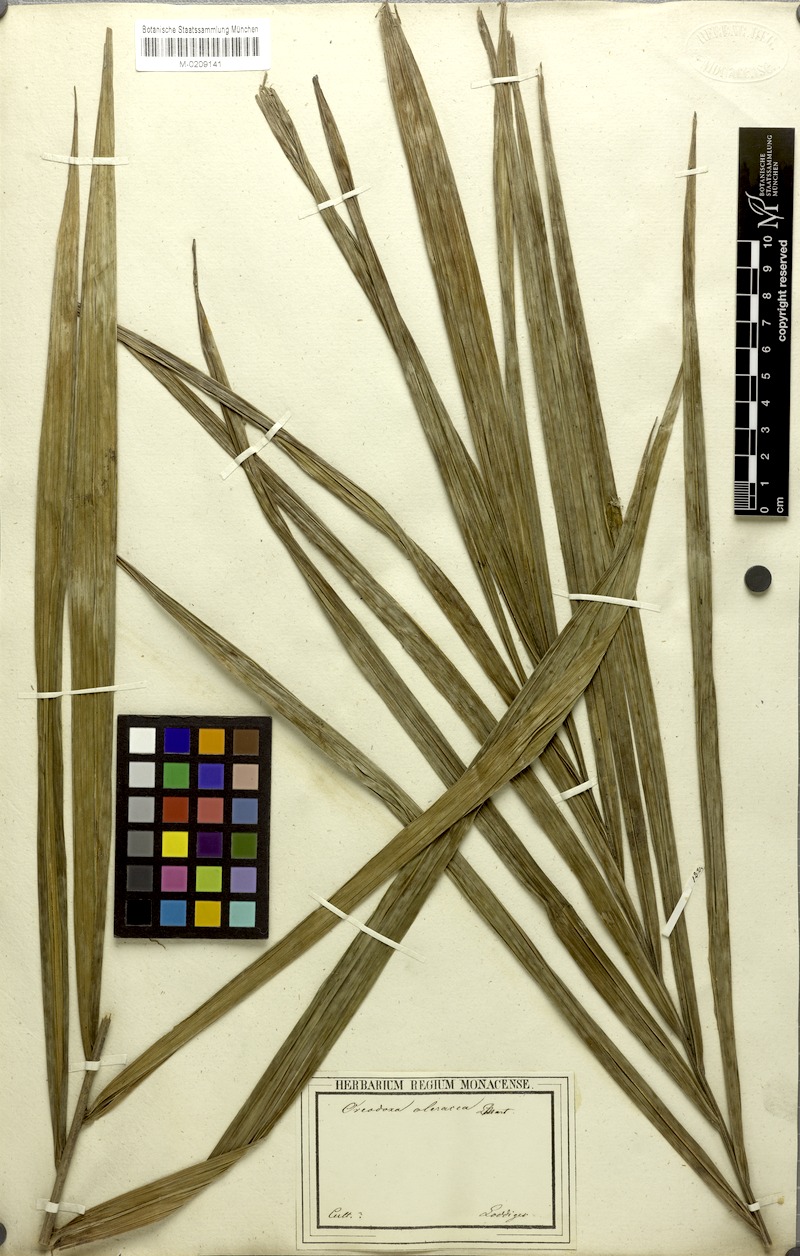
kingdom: Plantae
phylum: Tracheophyta
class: Liliopsida
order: Arecales
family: Arecaceae
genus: Roystonea
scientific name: Roystonea oleracea
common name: South american royal palm
